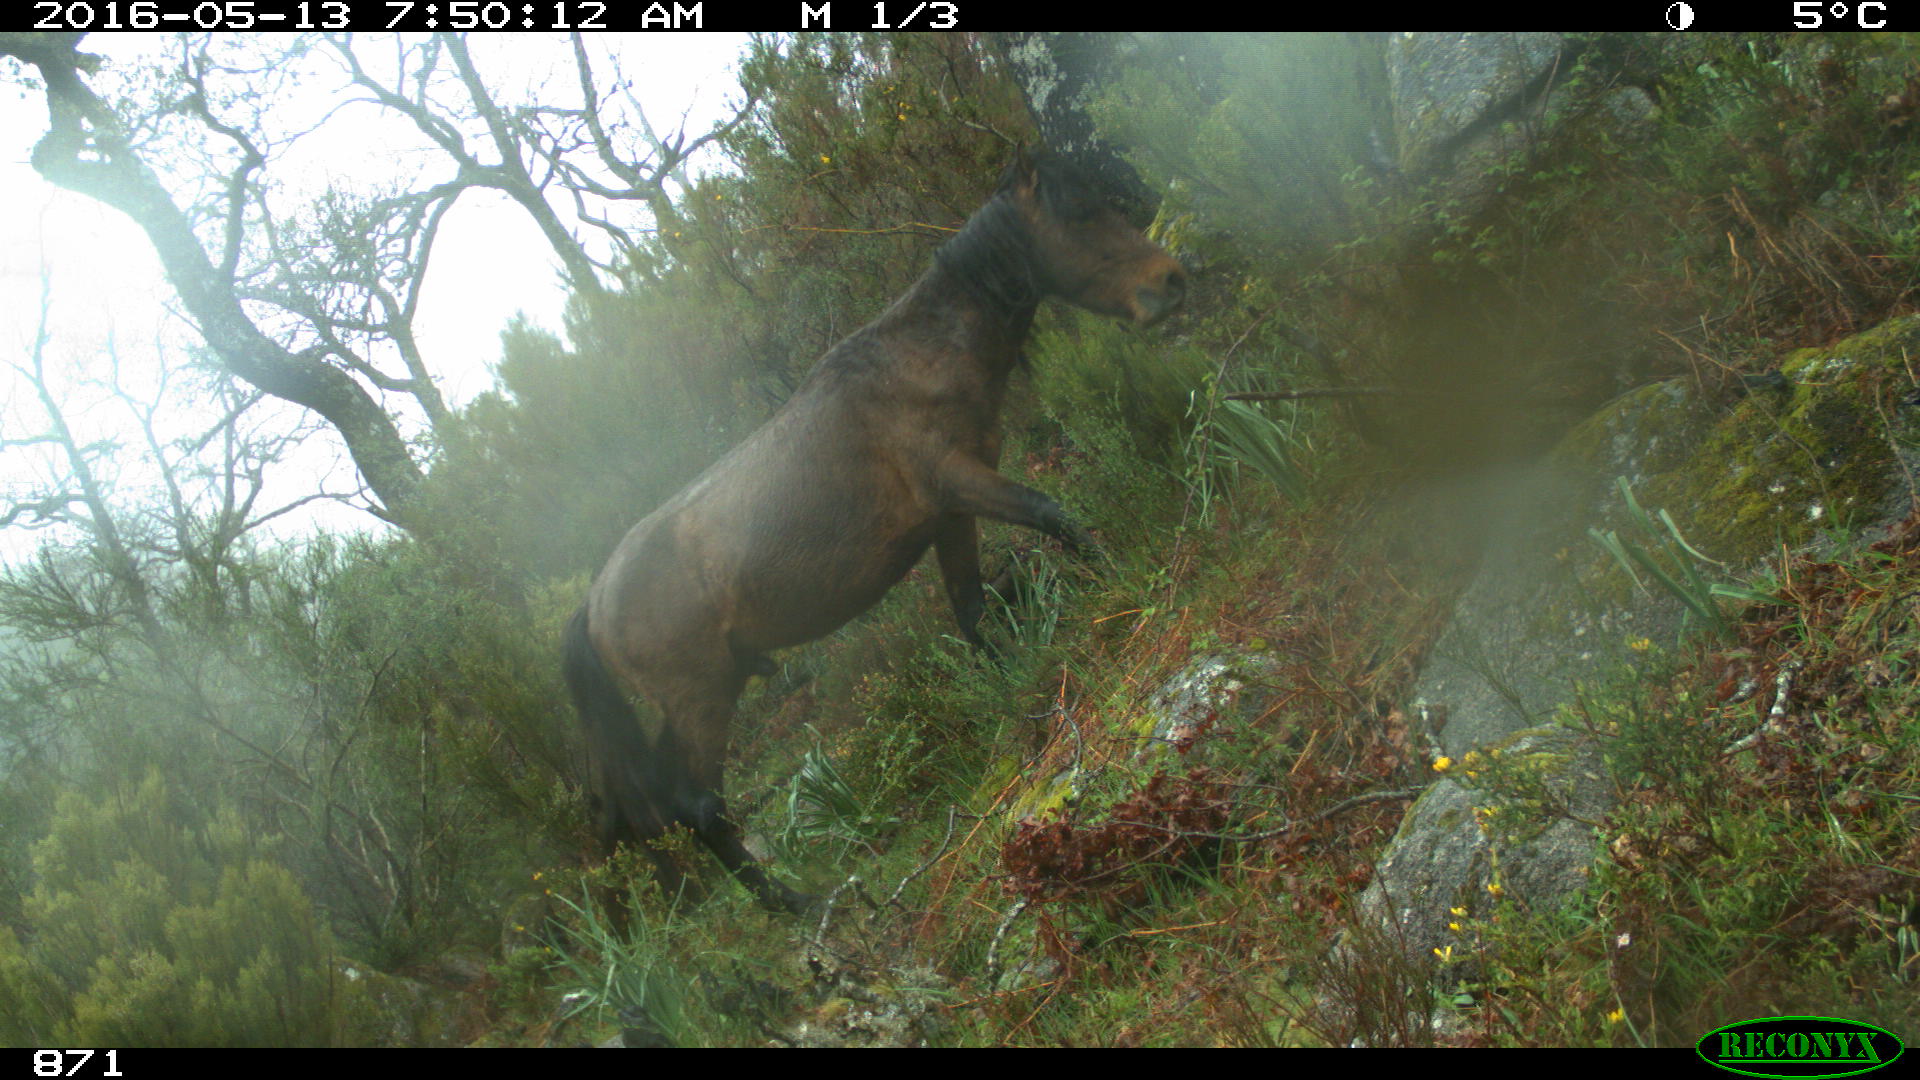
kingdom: Animalia
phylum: Chordata
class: Mammalia
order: Perissodactyla
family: Equidae
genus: Equus
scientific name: Equus caballus
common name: Horse
